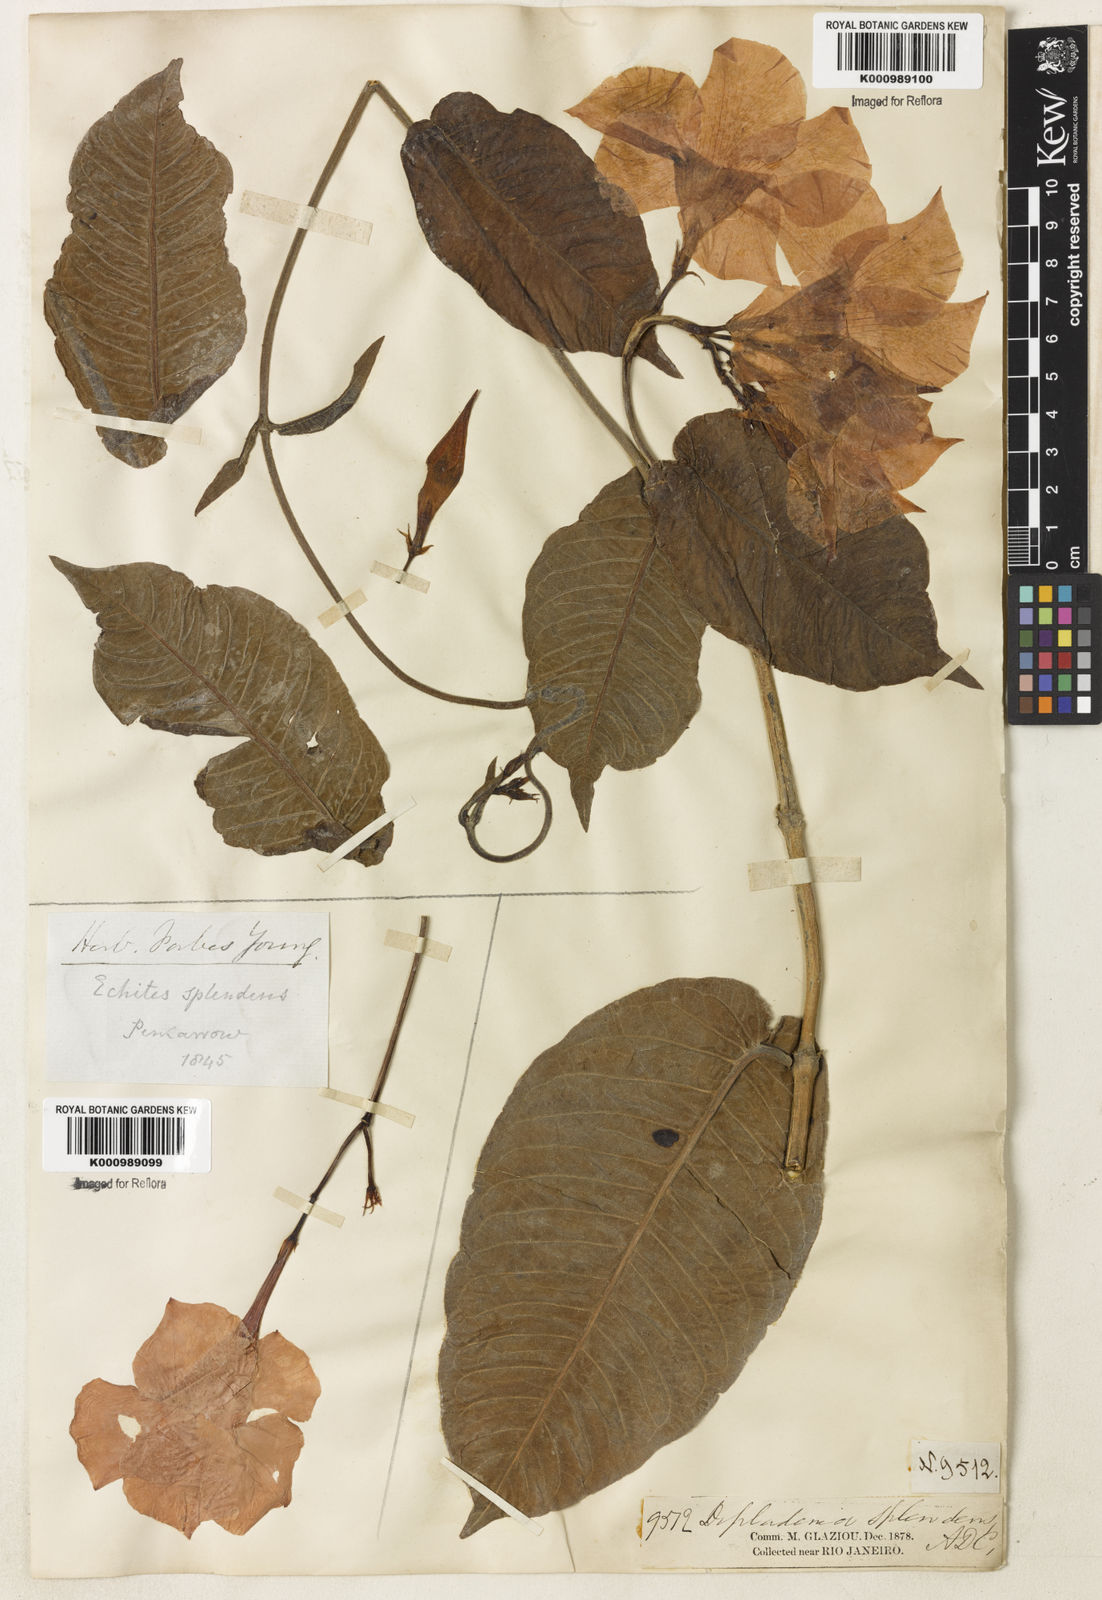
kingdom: Plantae
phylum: Tracheophyta
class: Magnoliopsida
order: Gentianales
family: Apocynaceae
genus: Mandevilla
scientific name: Mandevilla splendens
